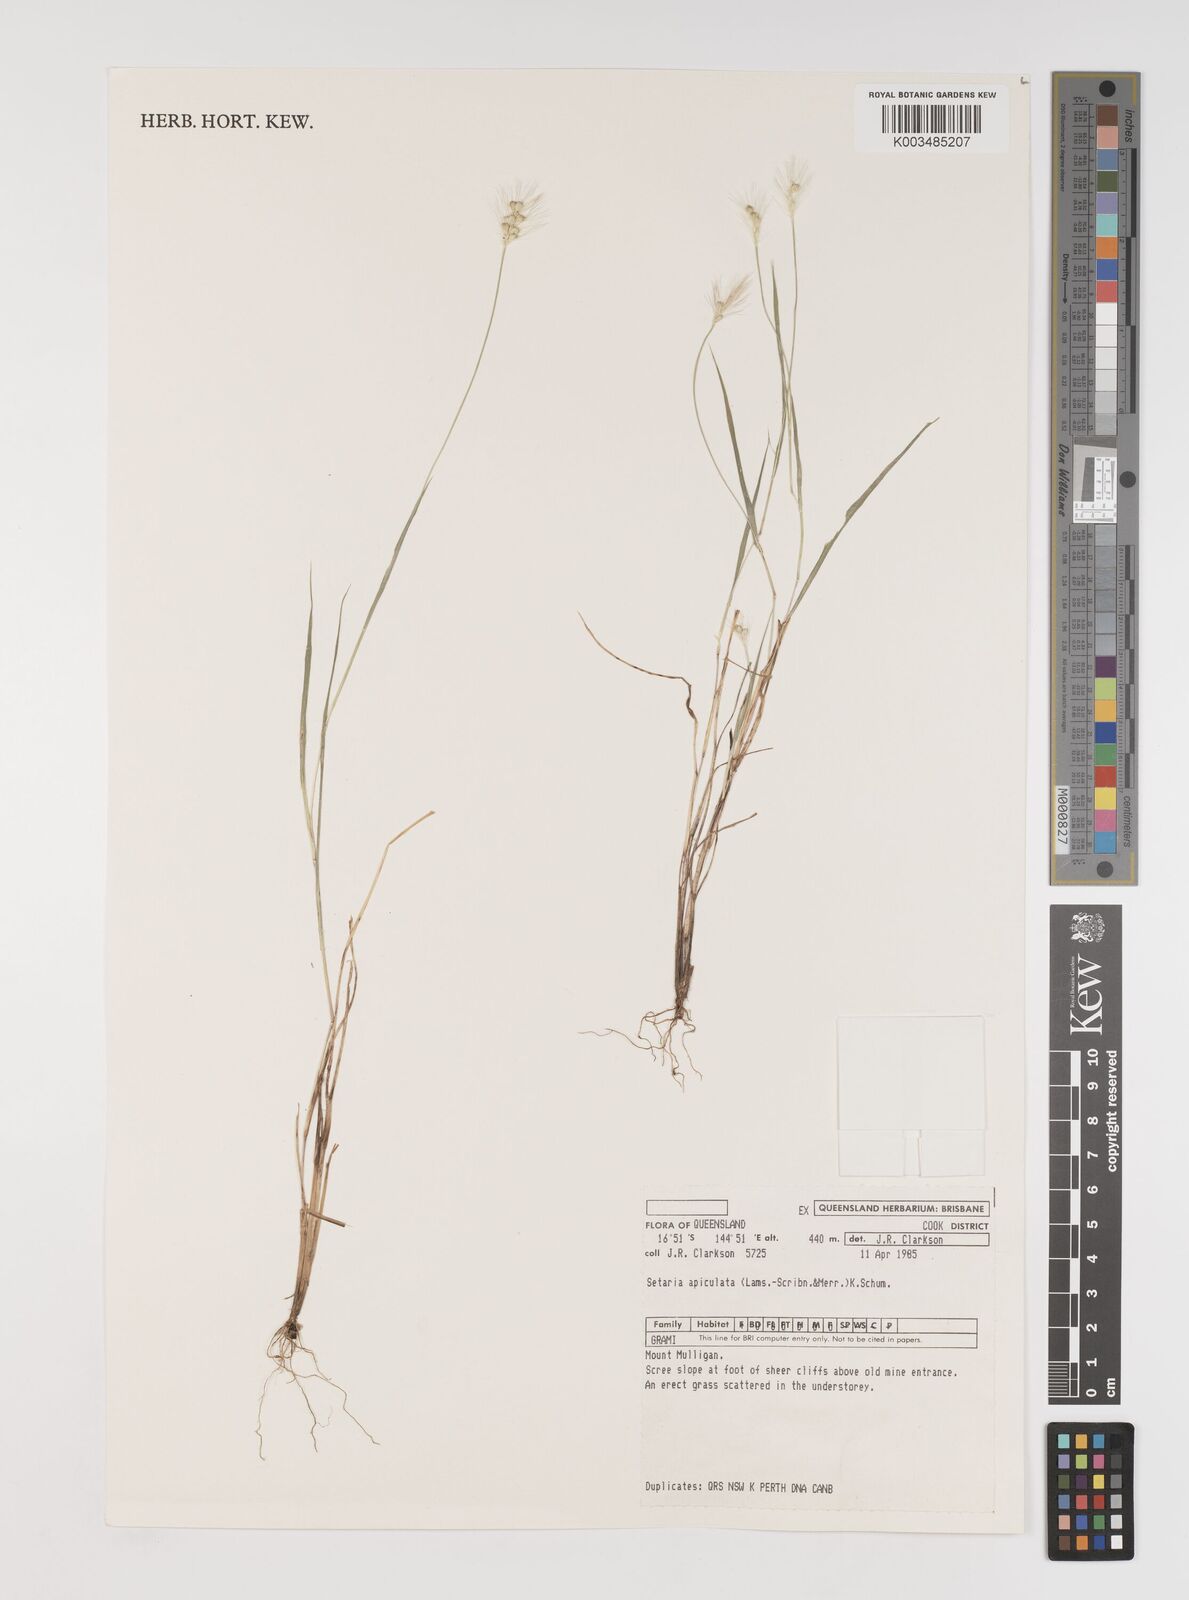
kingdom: Plantae
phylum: Tracheophyta
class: Liliopsida
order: Poales
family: Poaceae
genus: Setaria
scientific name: Setaria surgens
